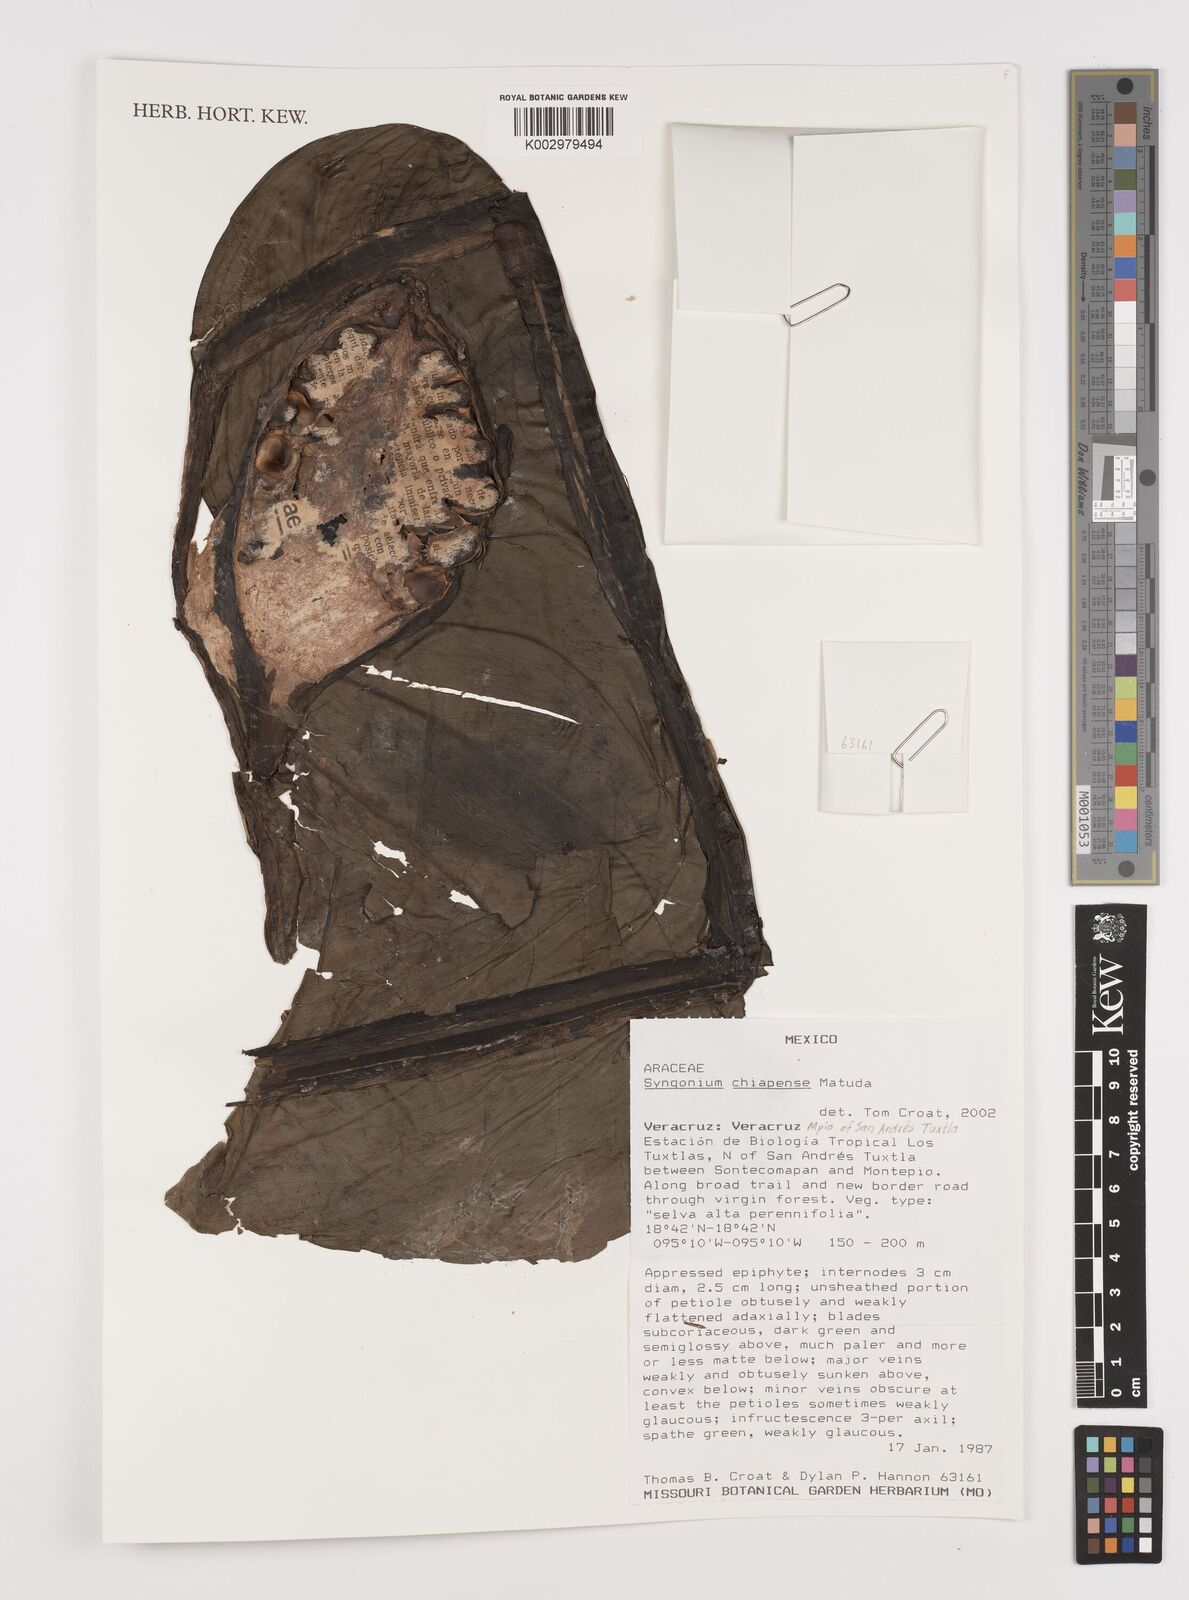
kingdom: Plantae
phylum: Tracheophyta
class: Liliopsida
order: Alismatales
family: Araceae
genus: Syngonium
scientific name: Syngonium chiapense
